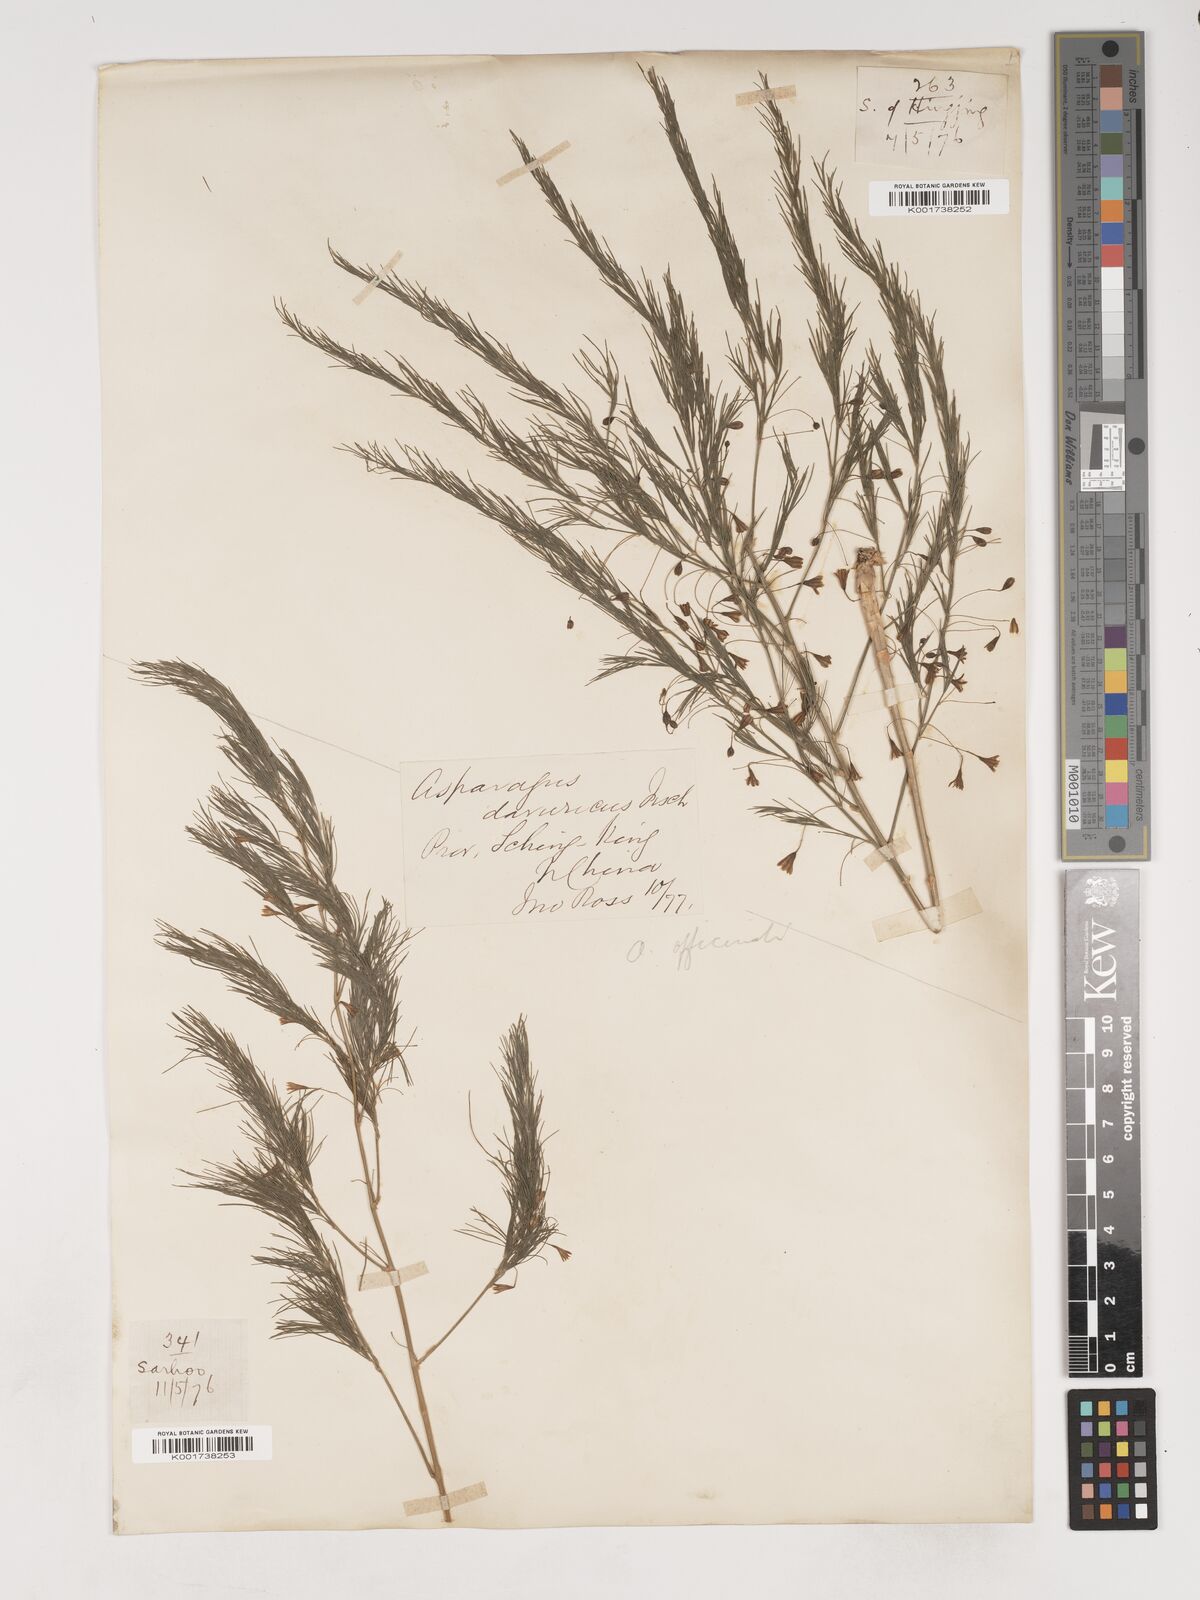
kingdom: Plantae
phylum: Tracheophyta
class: Liliopsida
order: Asparagales
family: Asparagaceae
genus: Asparagus
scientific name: Asparagus oligoclonos
